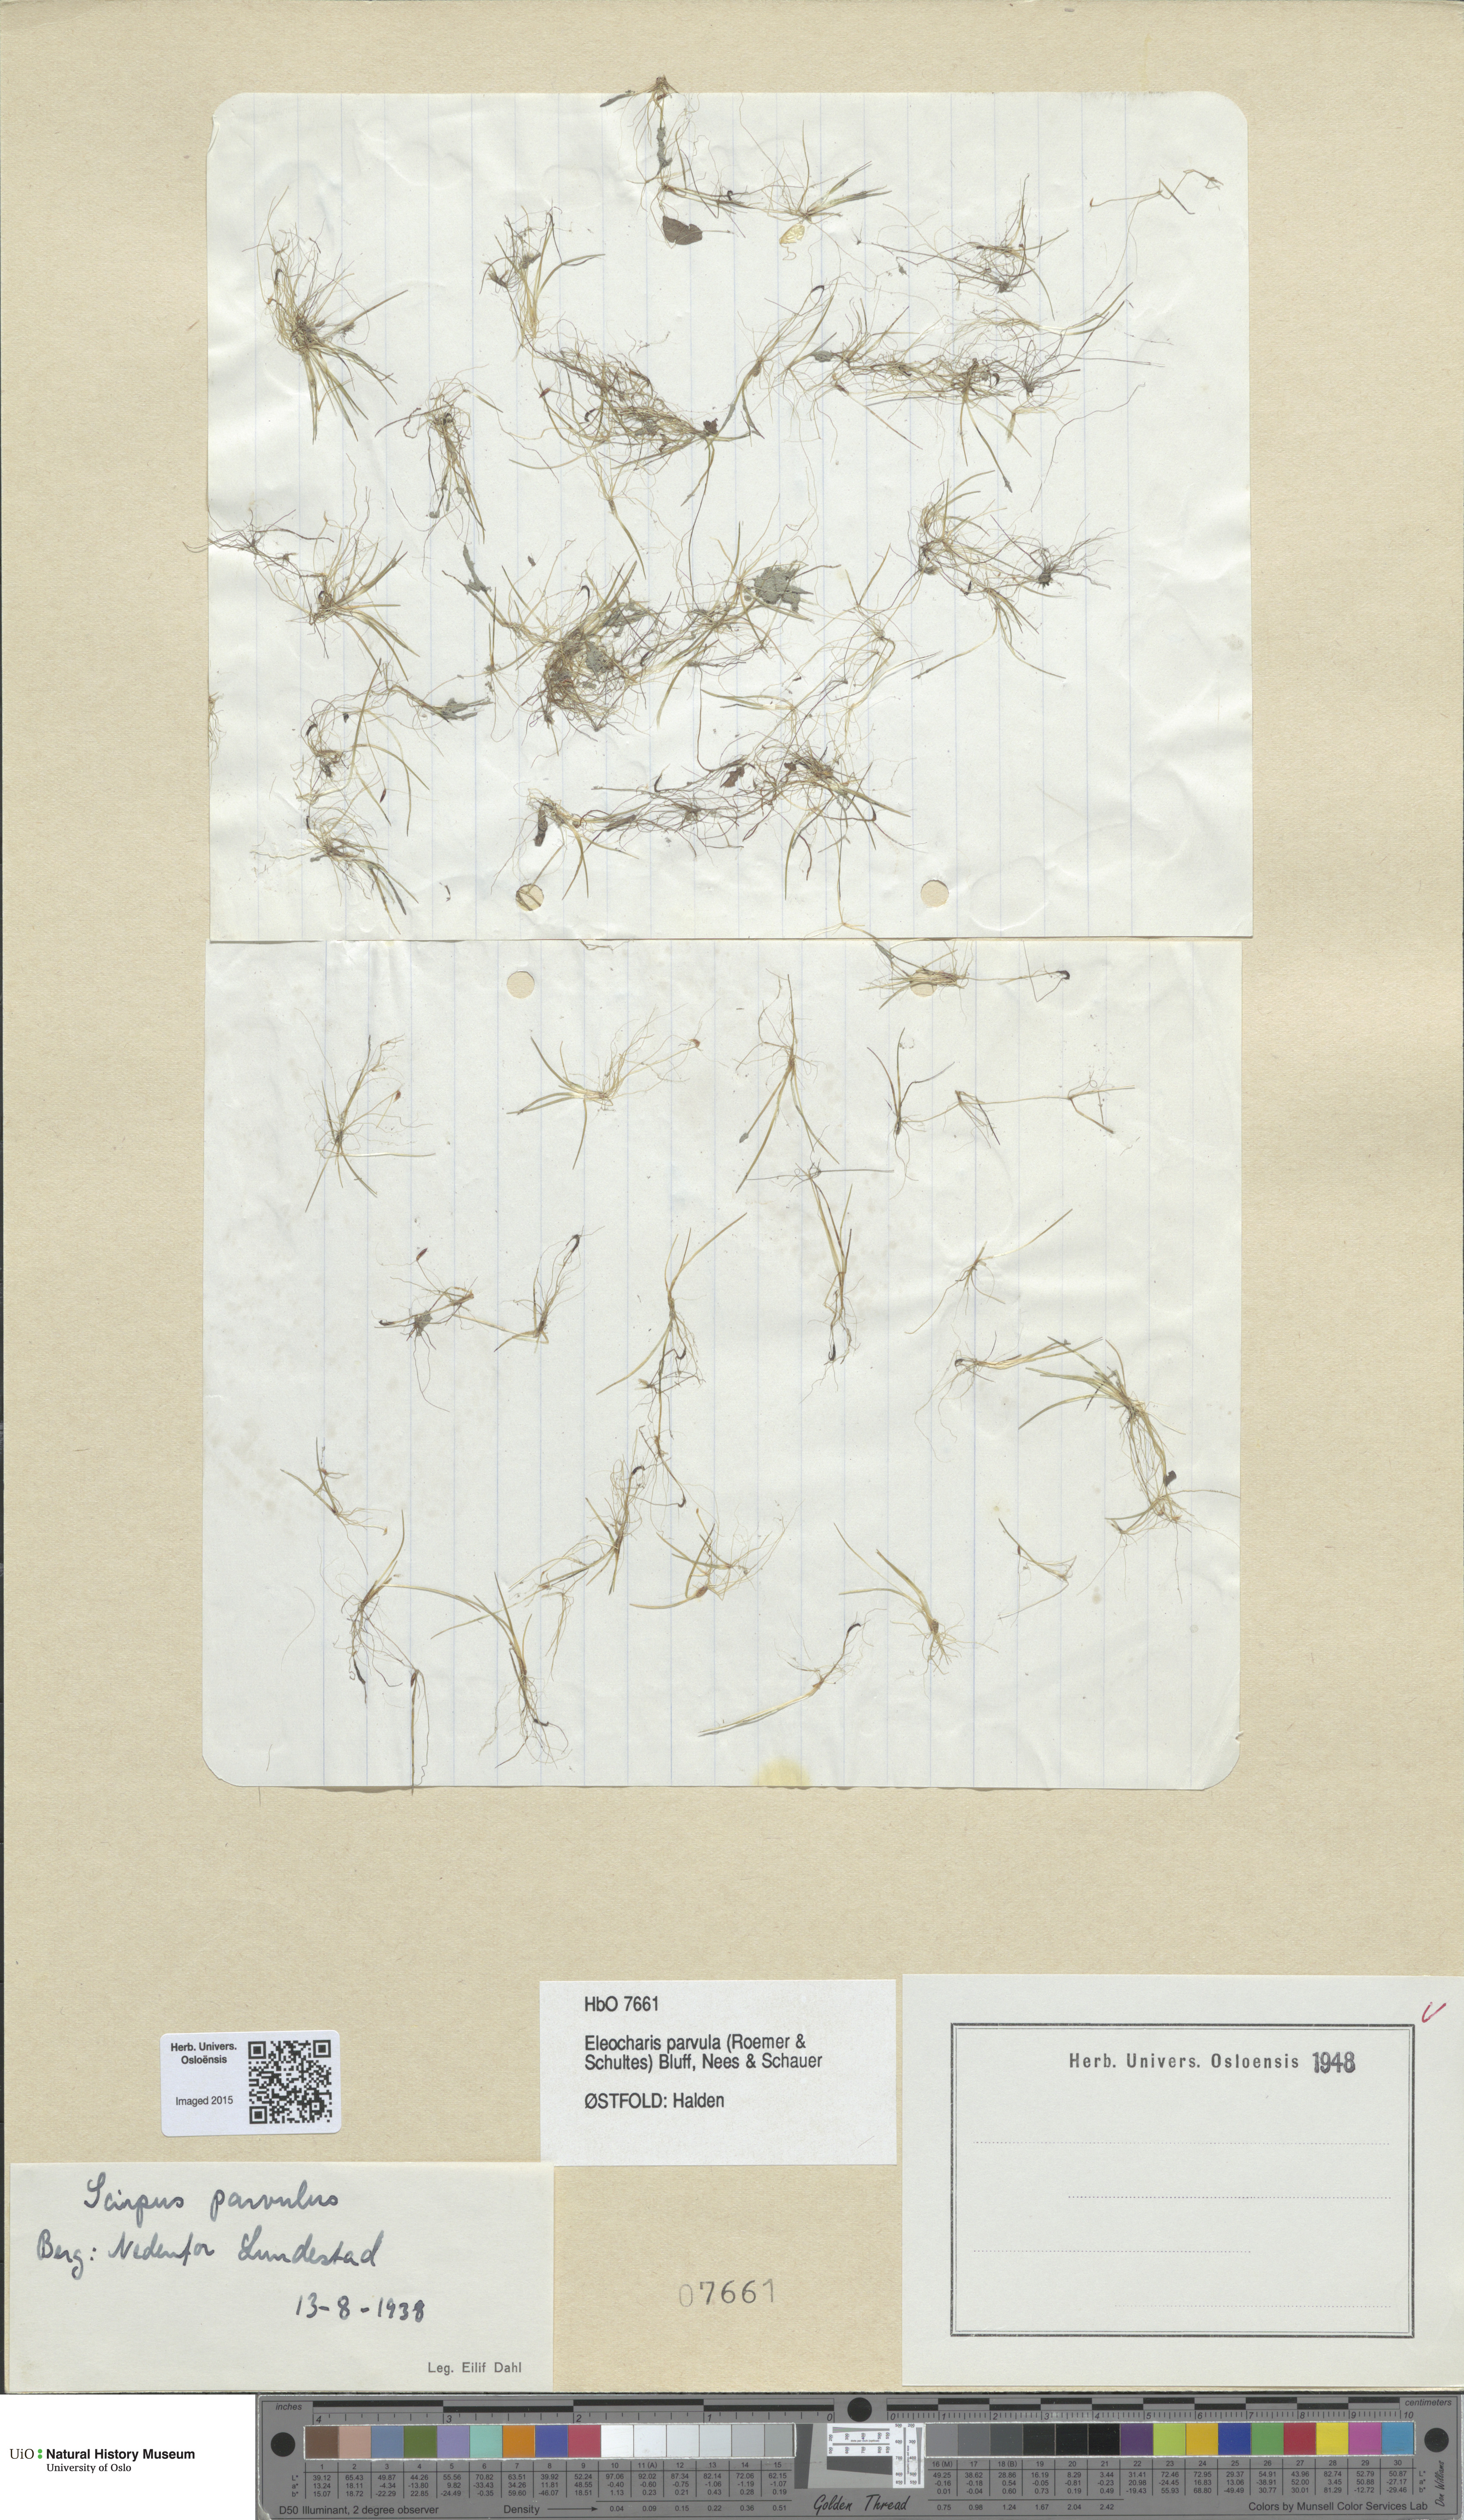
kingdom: Plantae
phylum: Tracheophyta
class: Liliopsida
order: Poales
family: Cyperaceae
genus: Eleocharis
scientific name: Eleocharis parvula
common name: Dwarf spike-rush
